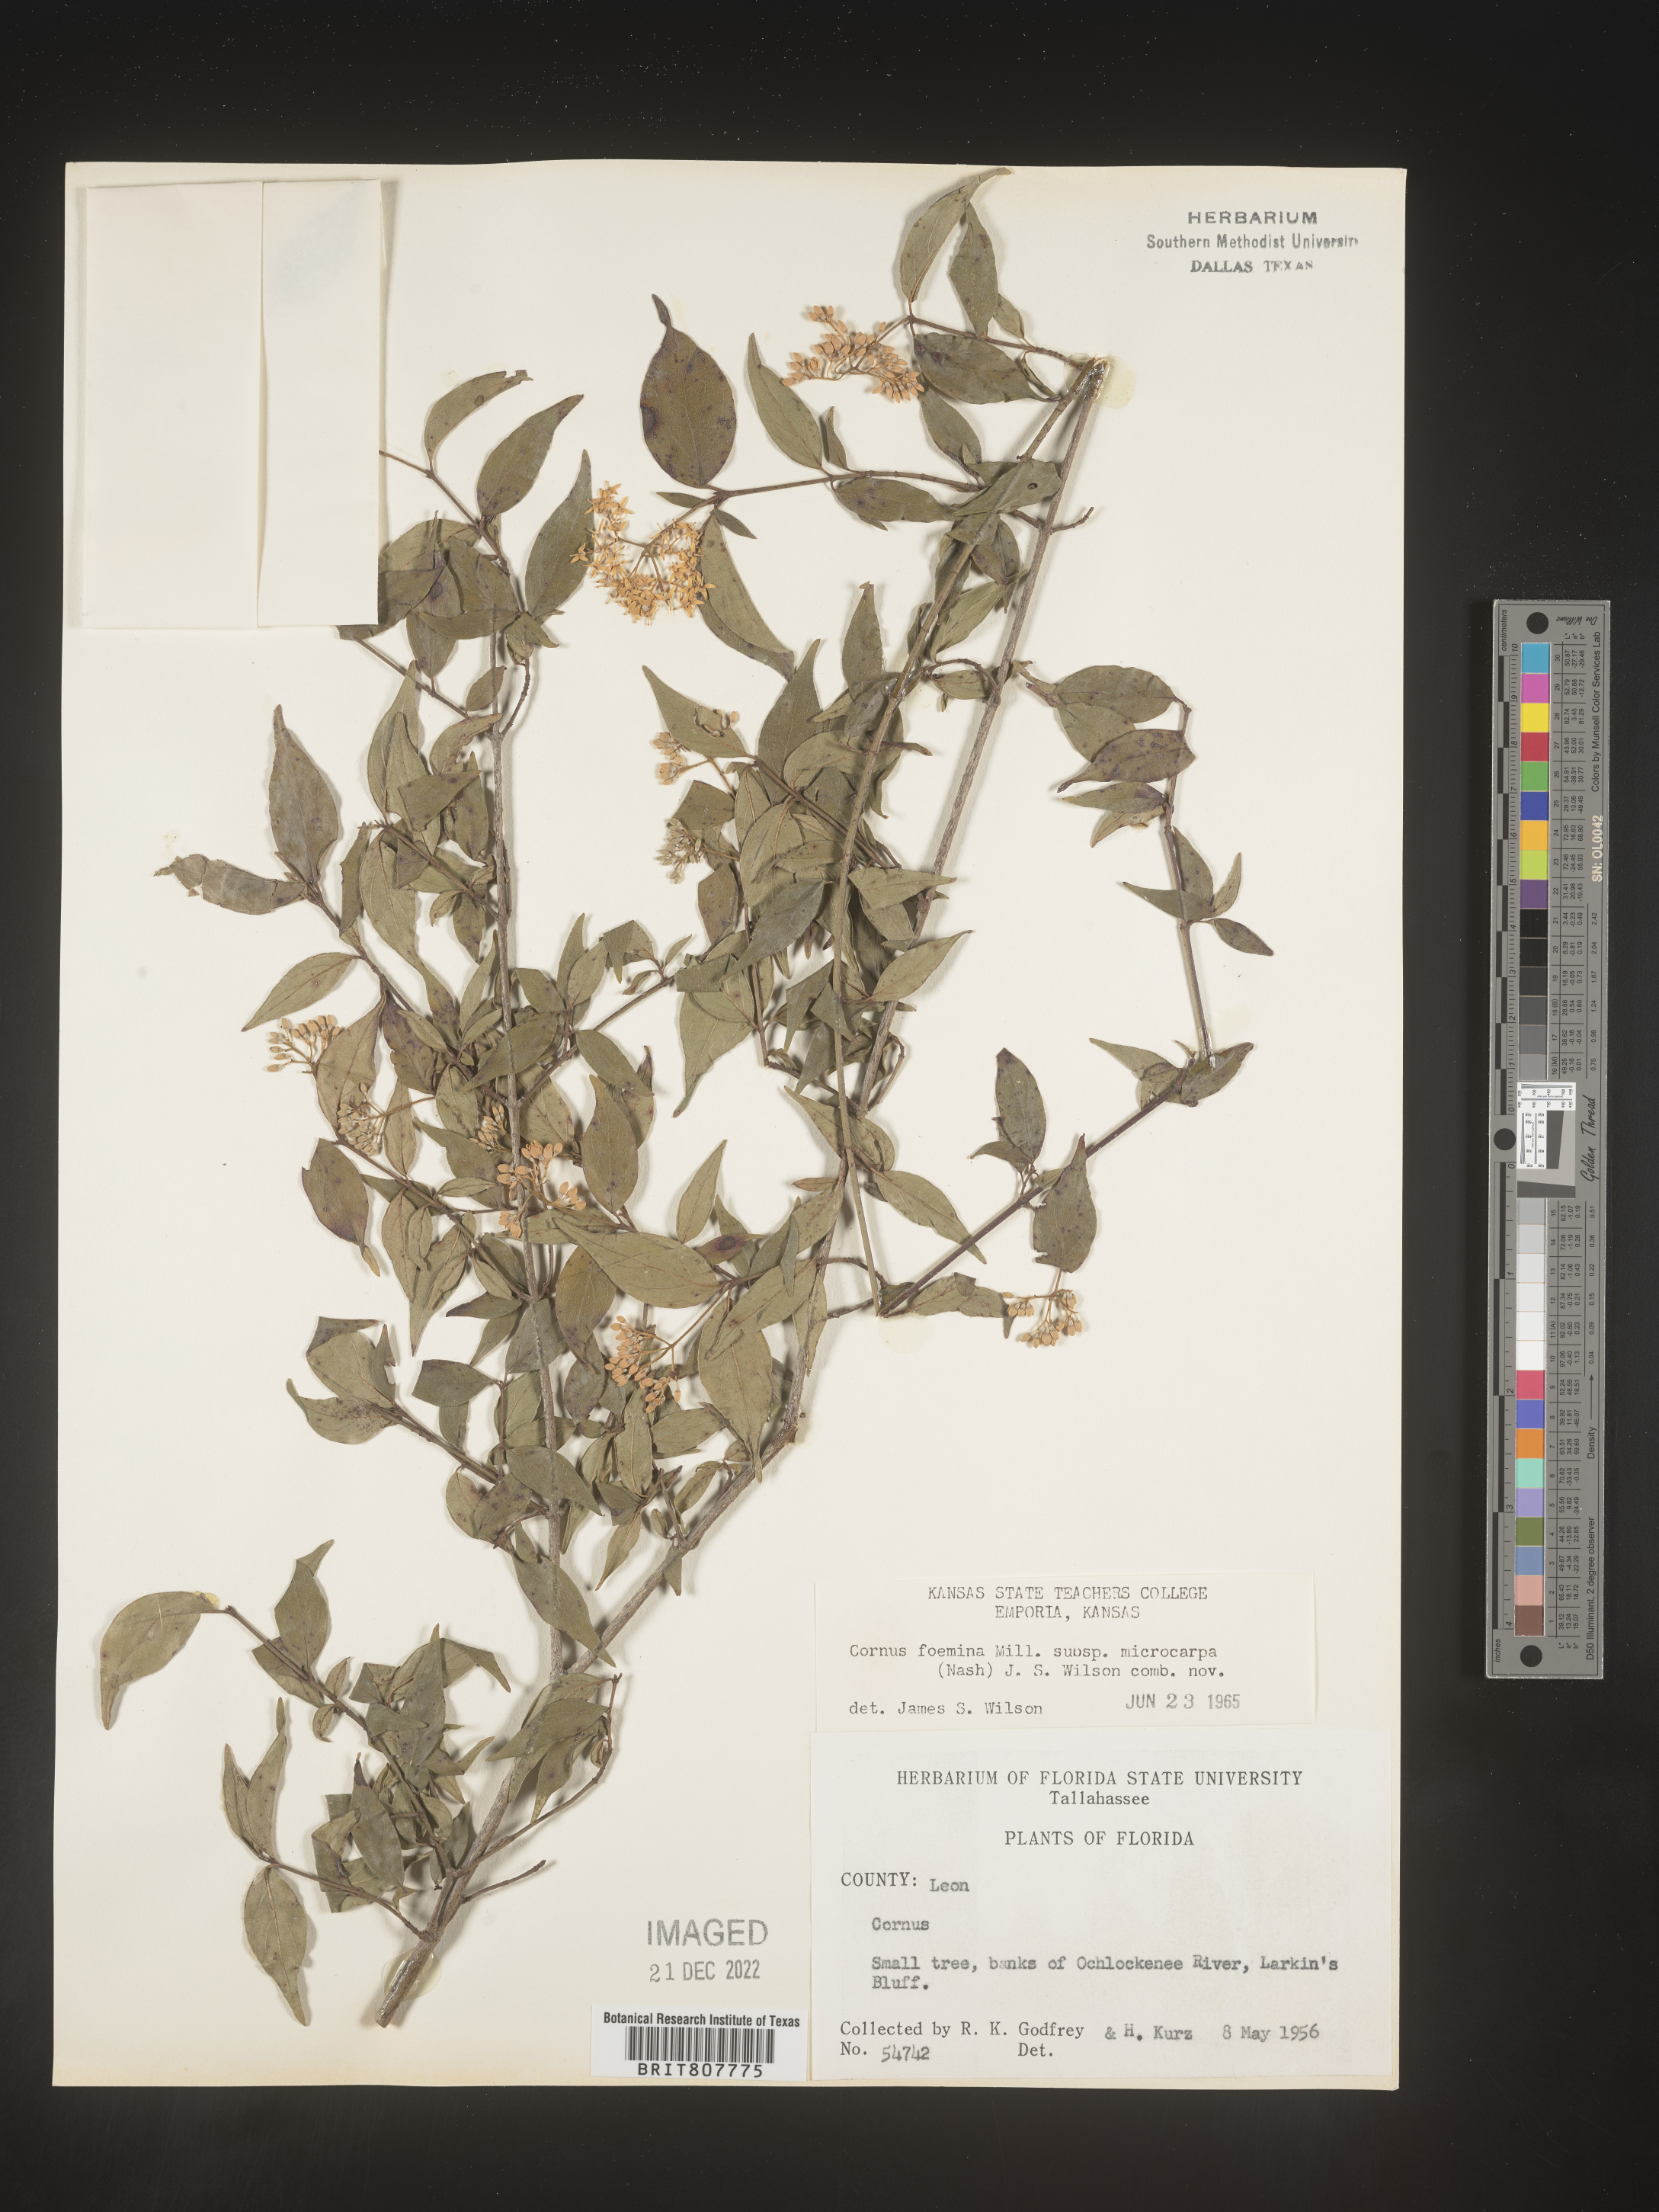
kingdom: Plantae
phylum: Tracheophyta
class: Magnoliopsida
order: Cornales
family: Cornaceae
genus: Cornus
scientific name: Cornus foemina
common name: Swamp dogwood
